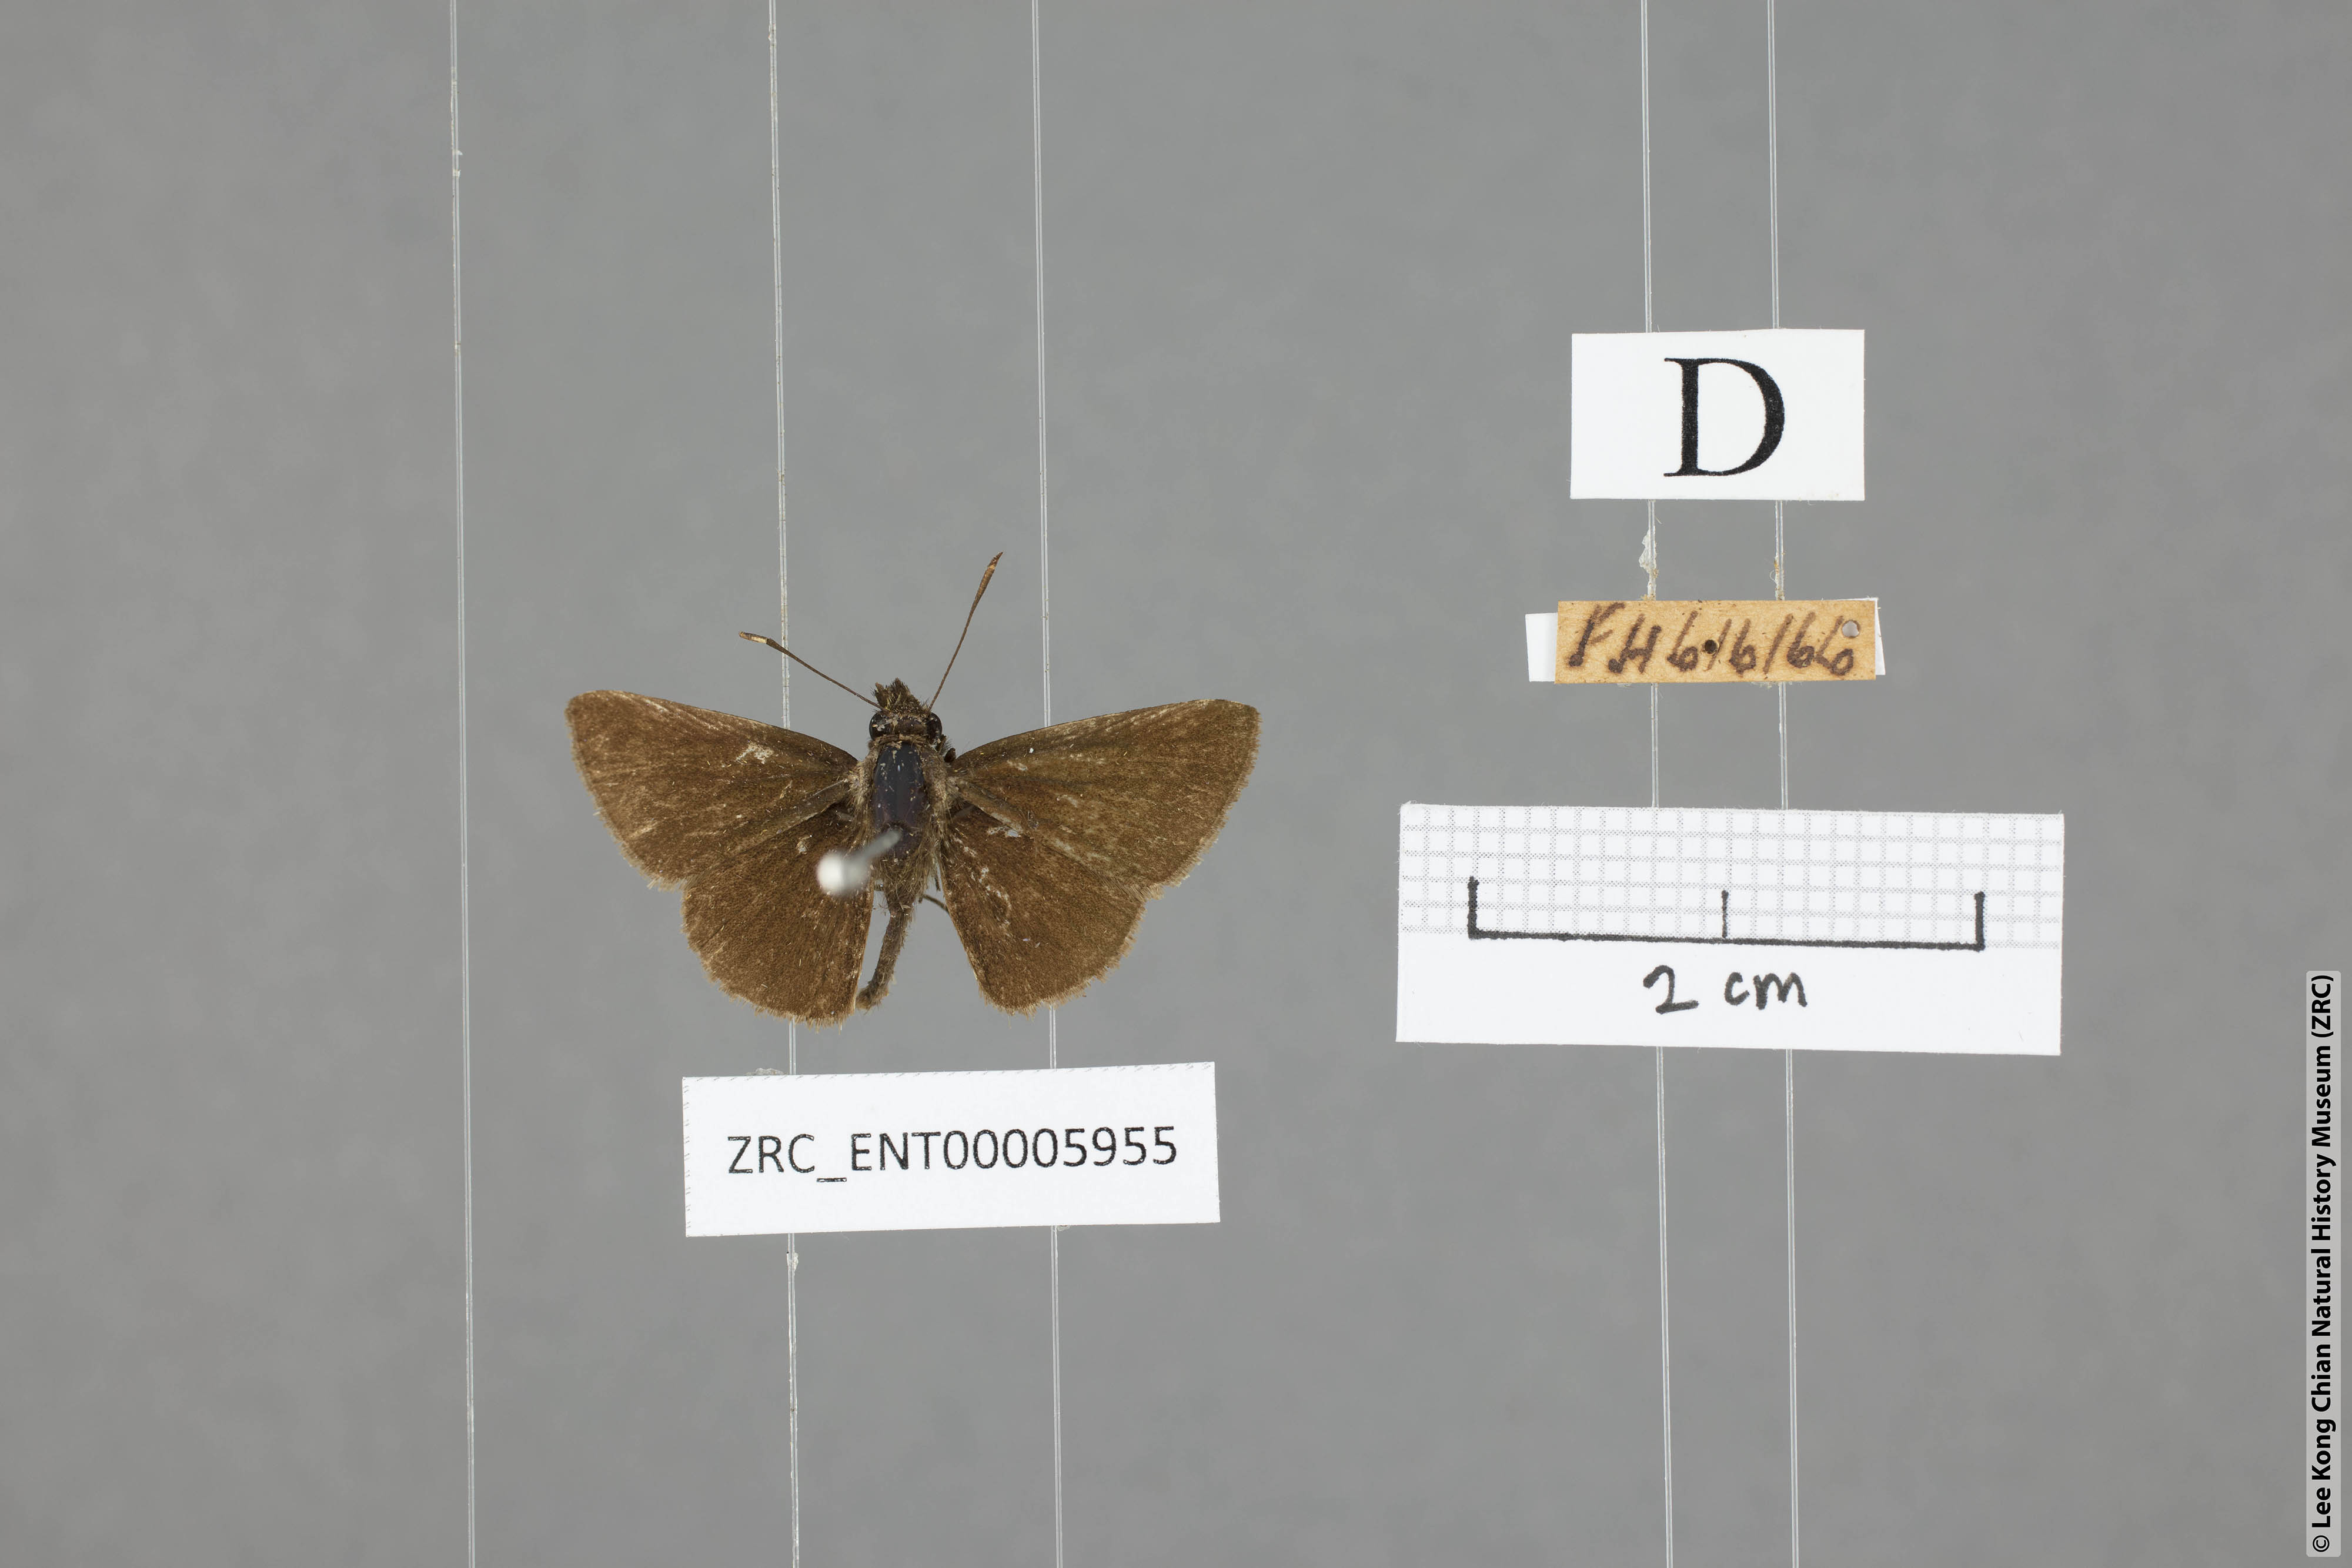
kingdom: Animalia
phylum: Arthropoda
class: Insecta
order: Lepidoptera
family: Hesperiidae
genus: Aeromachus
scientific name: Aeromachus jhora
